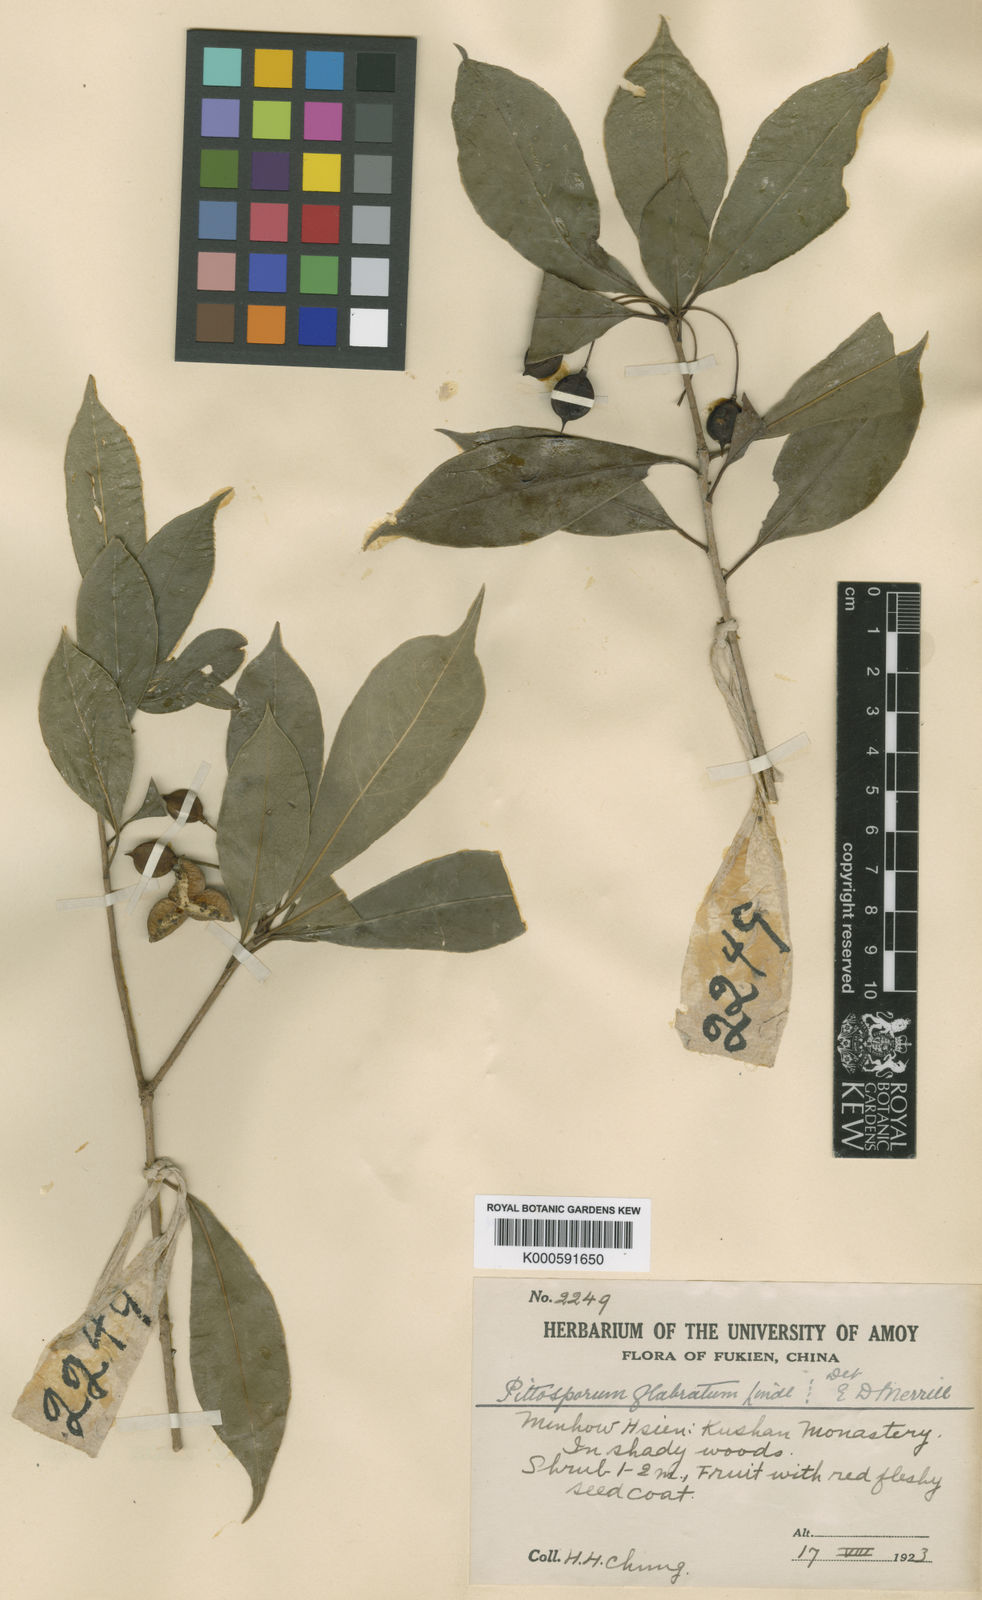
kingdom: Plantae
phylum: Tracheophyta
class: Magnoliopsida
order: Apiales
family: Pittosporaceae
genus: Pittosporum
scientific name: Pittosporum illicioides
